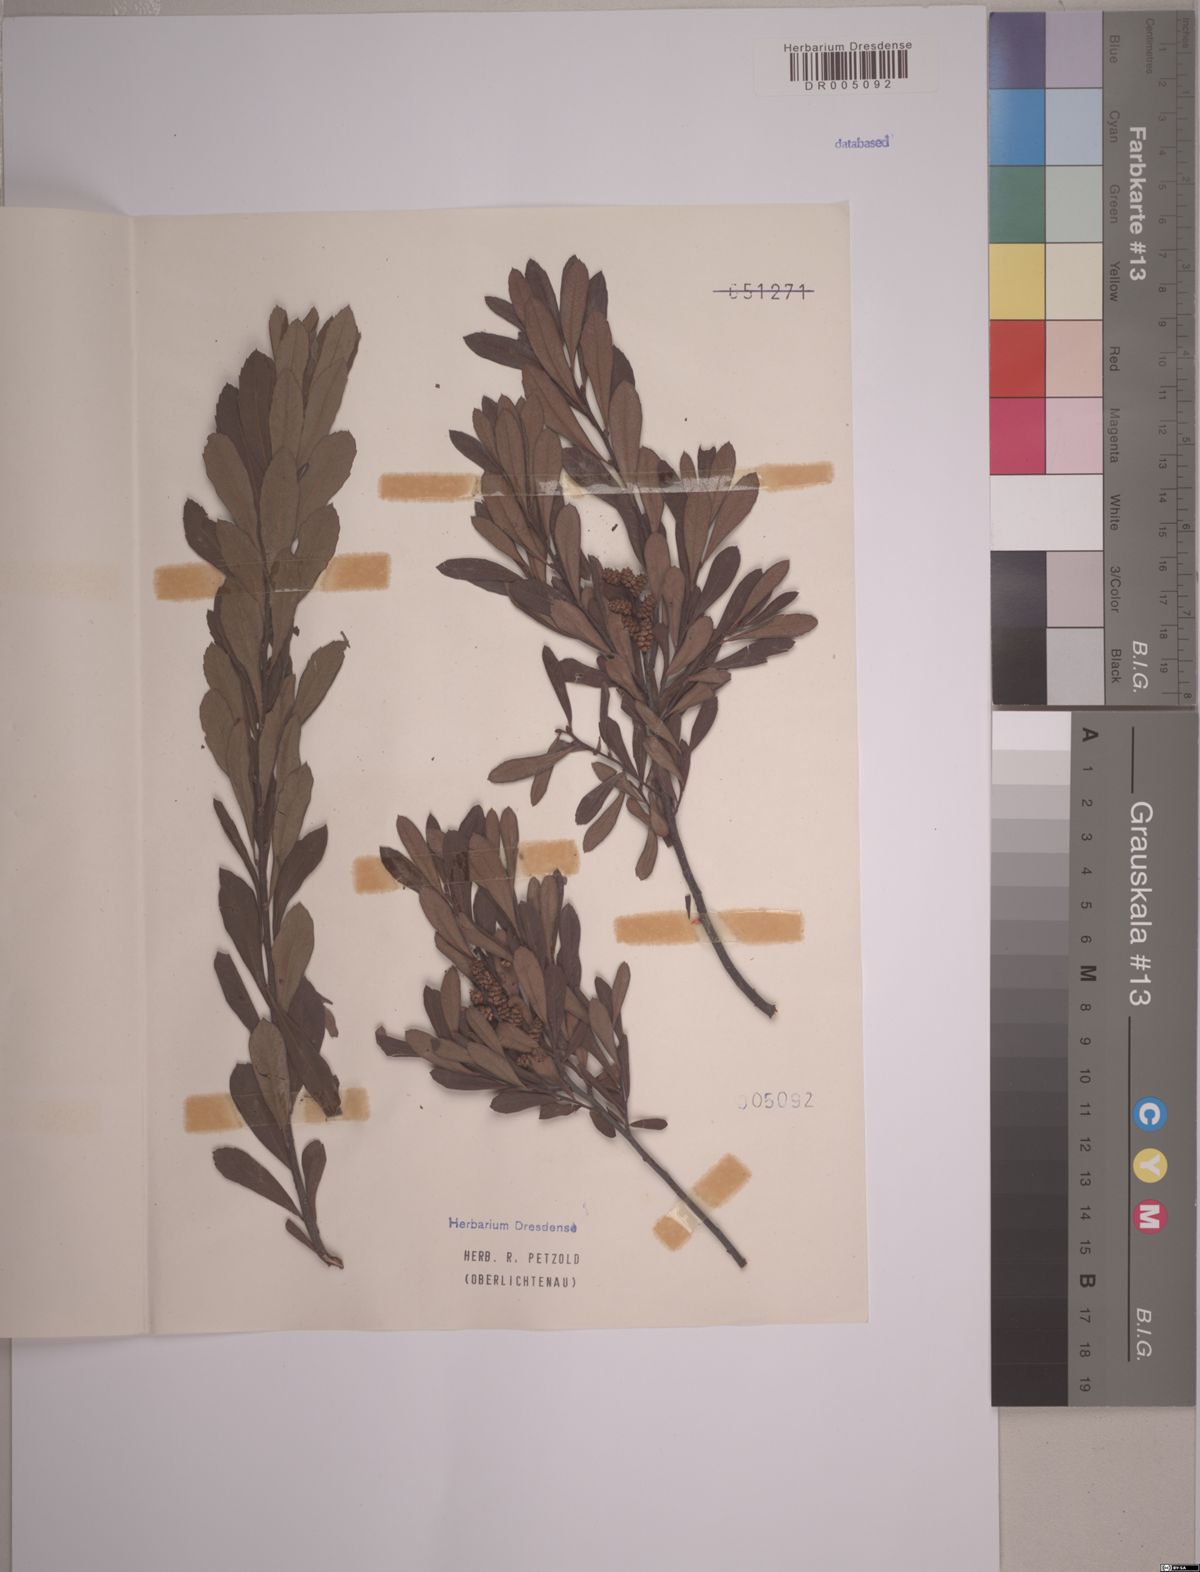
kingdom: Plantae
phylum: Tracheophyta
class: Magnoliopsida
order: Fagales
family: Myricaceae
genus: Myrica
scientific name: Myrica gale
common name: Sweet gale
